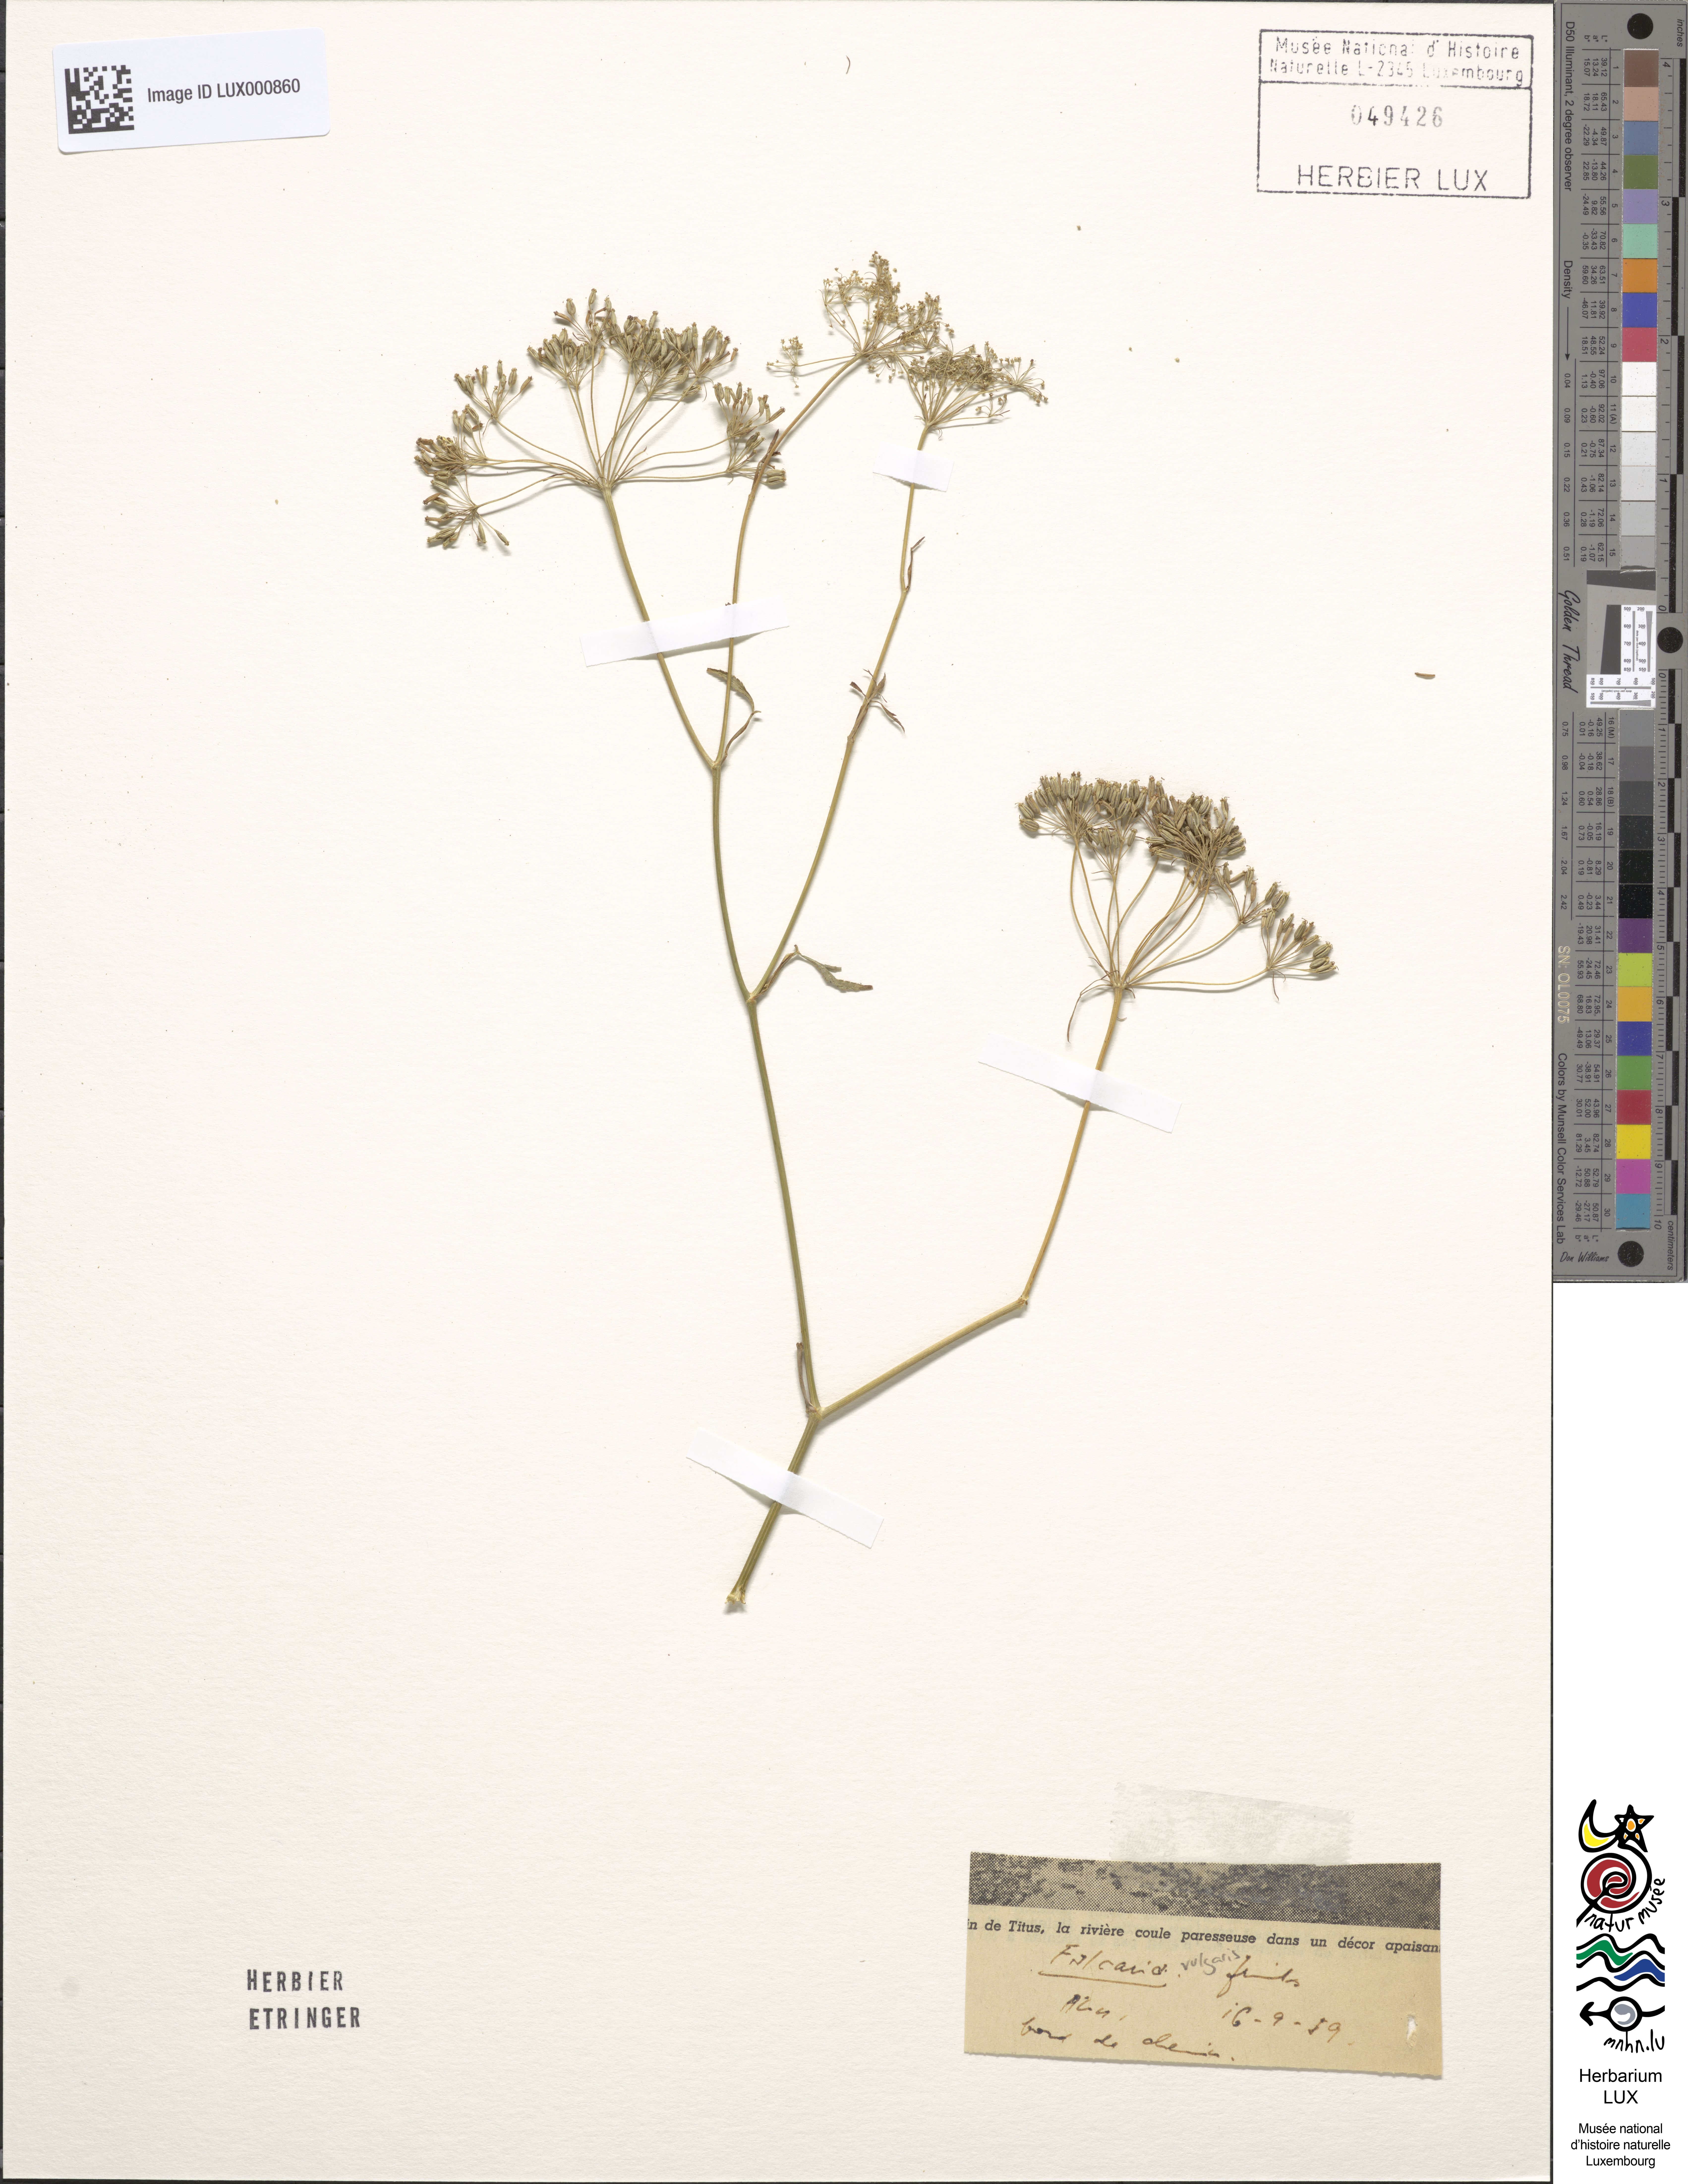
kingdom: Plantae
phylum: Tracheophyta
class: Magnoliopsida
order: Apiales
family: Apiaceae
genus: Falcaria
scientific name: Falcaria vulgaris
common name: Longleaf
